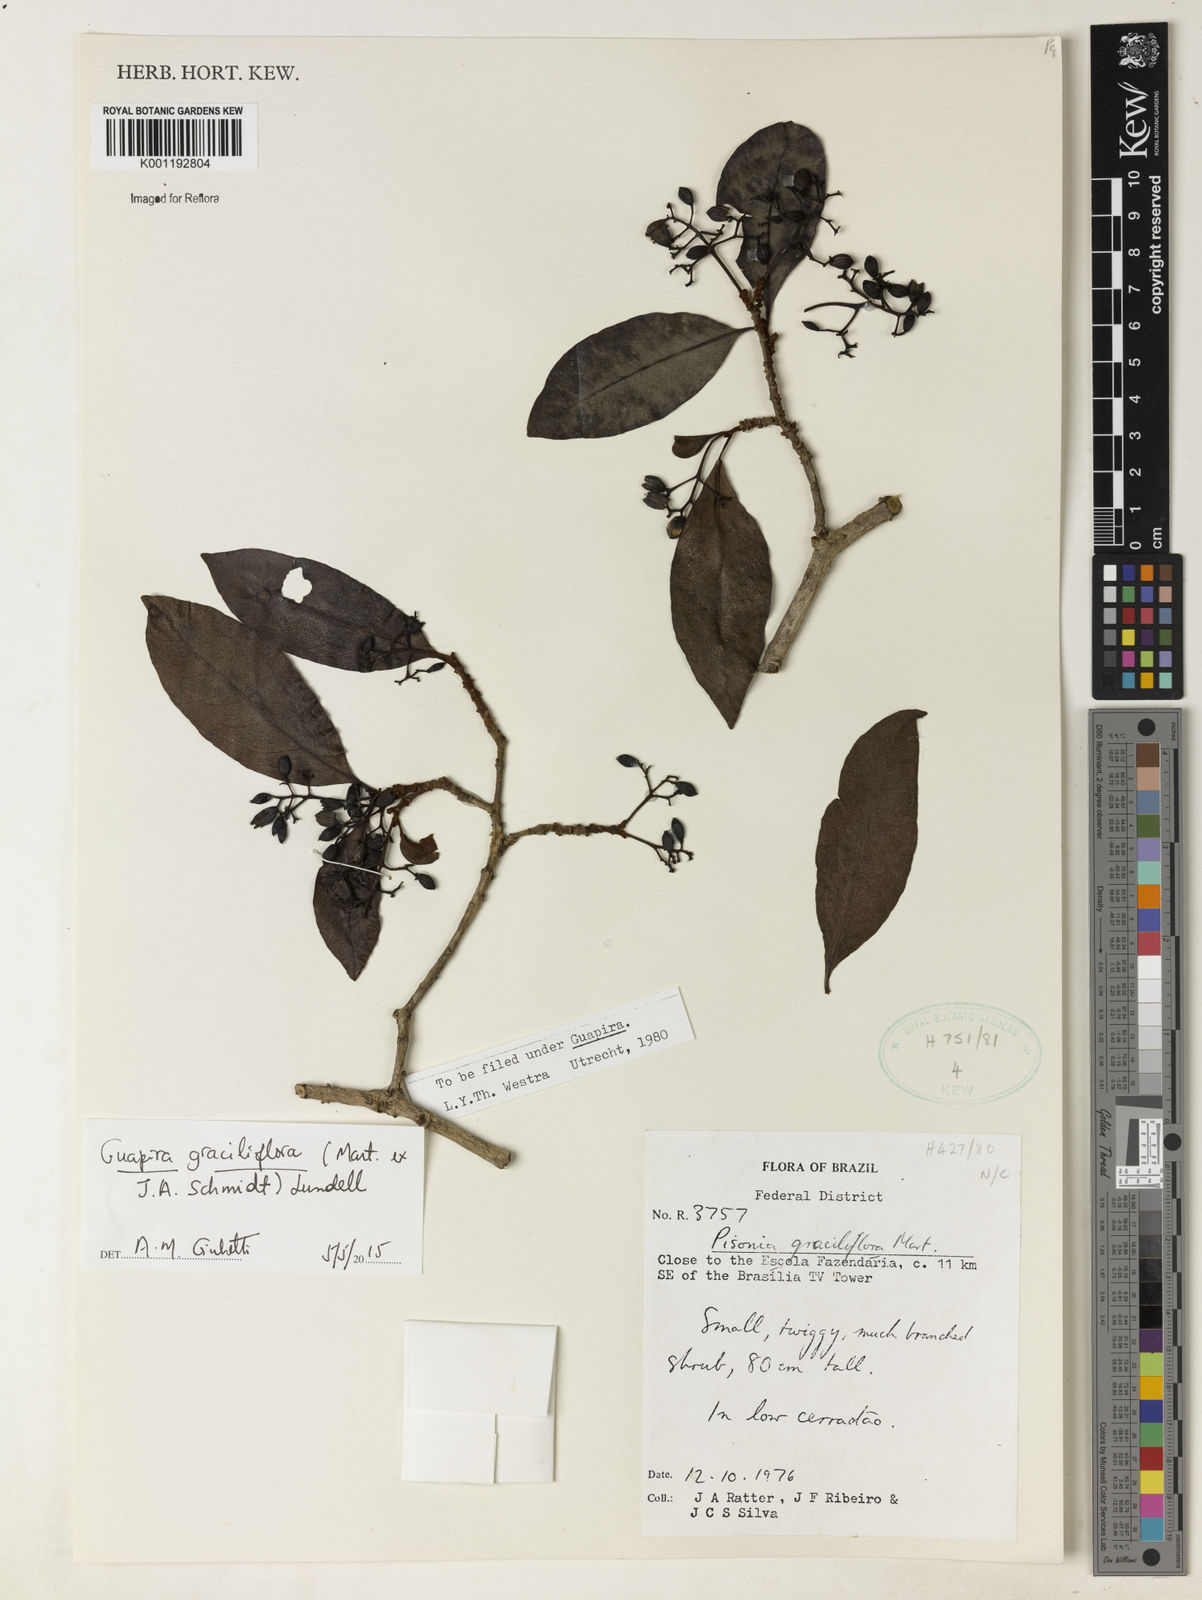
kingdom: Plantae
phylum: Tracheophyta
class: Magnoliopsida
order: Caryophyllales
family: Nyctaginaceae
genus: Guapira
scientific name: Guapira graciliflora
